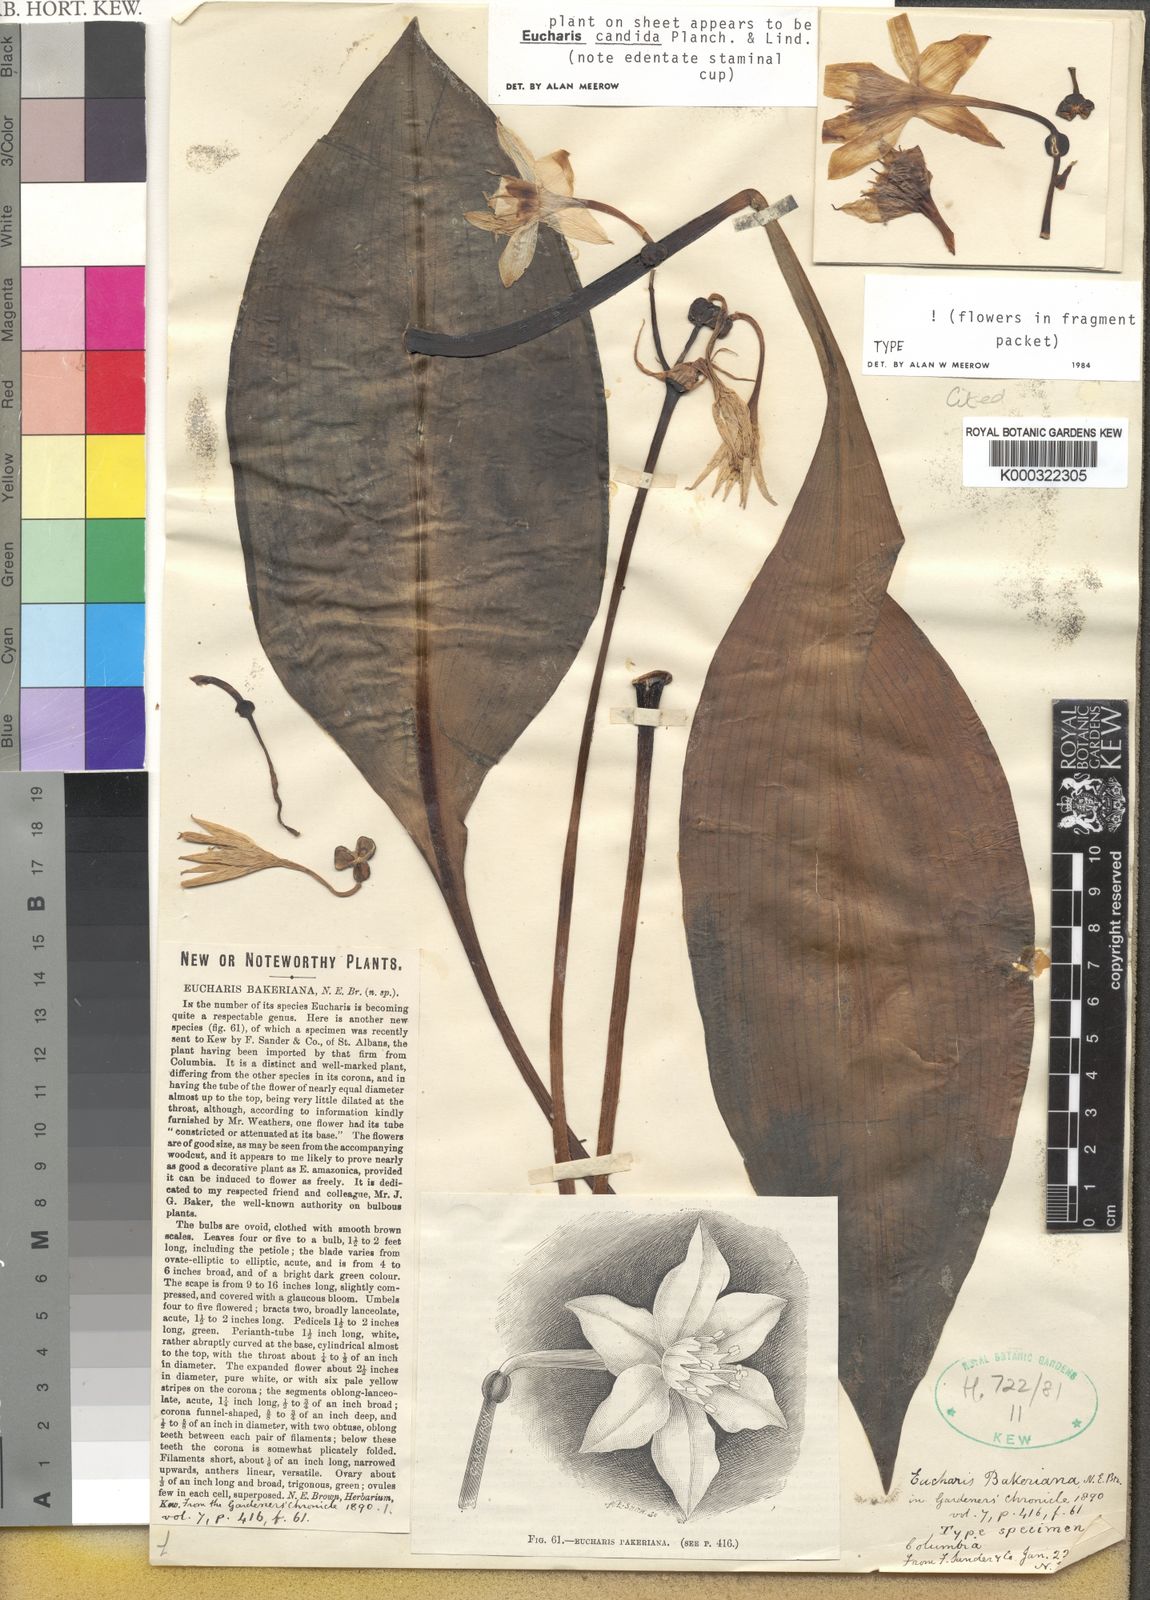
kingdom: Plantae
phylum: Tracheophyta
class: Liliopsida
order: Asparagales
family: Amaryllidaceae
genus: Urceolina
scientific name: Urceolina bakeriana
